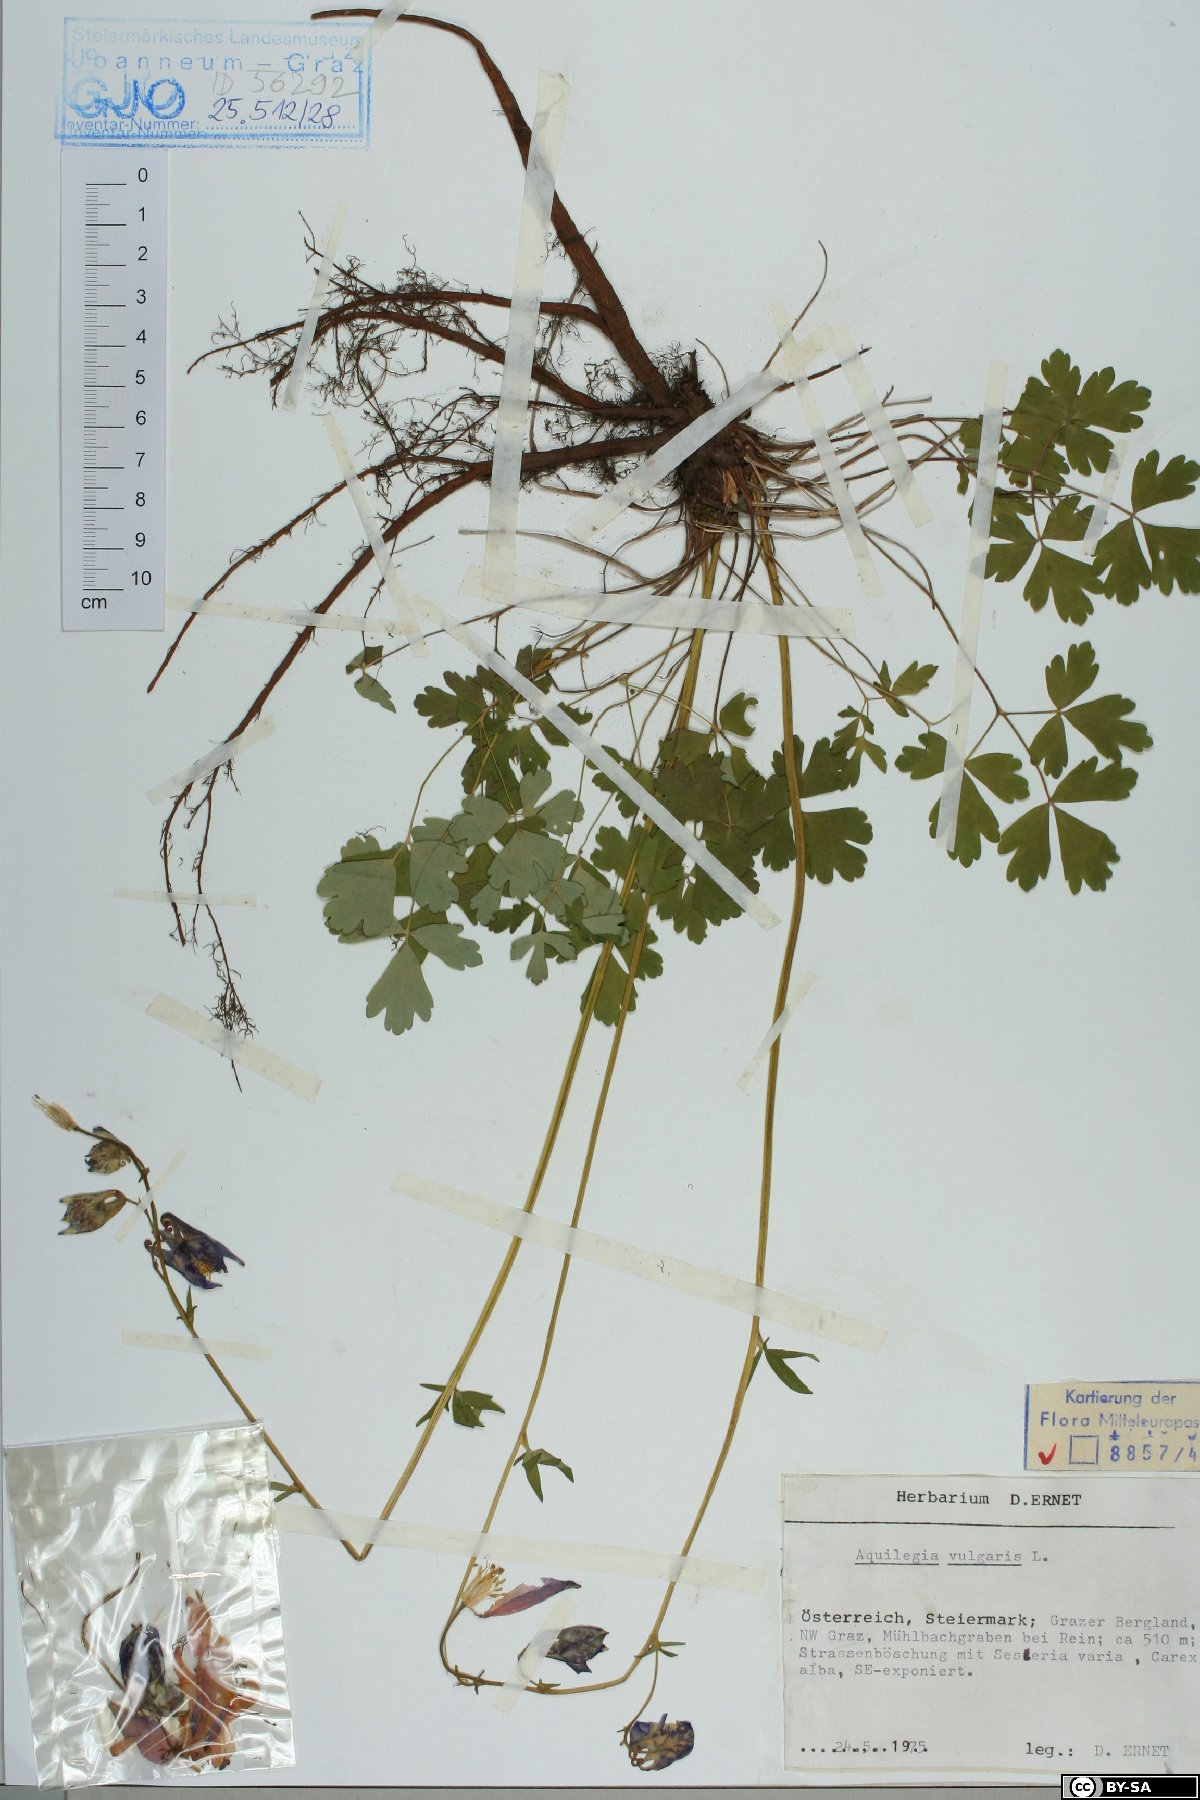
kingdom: Plantae
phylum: Tracheophyta
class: Magnoliopsida
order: Ranunculales
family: Ranunculaceae
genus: Aquilegia
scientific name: Aquilegia vulgaris
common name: Columbine
